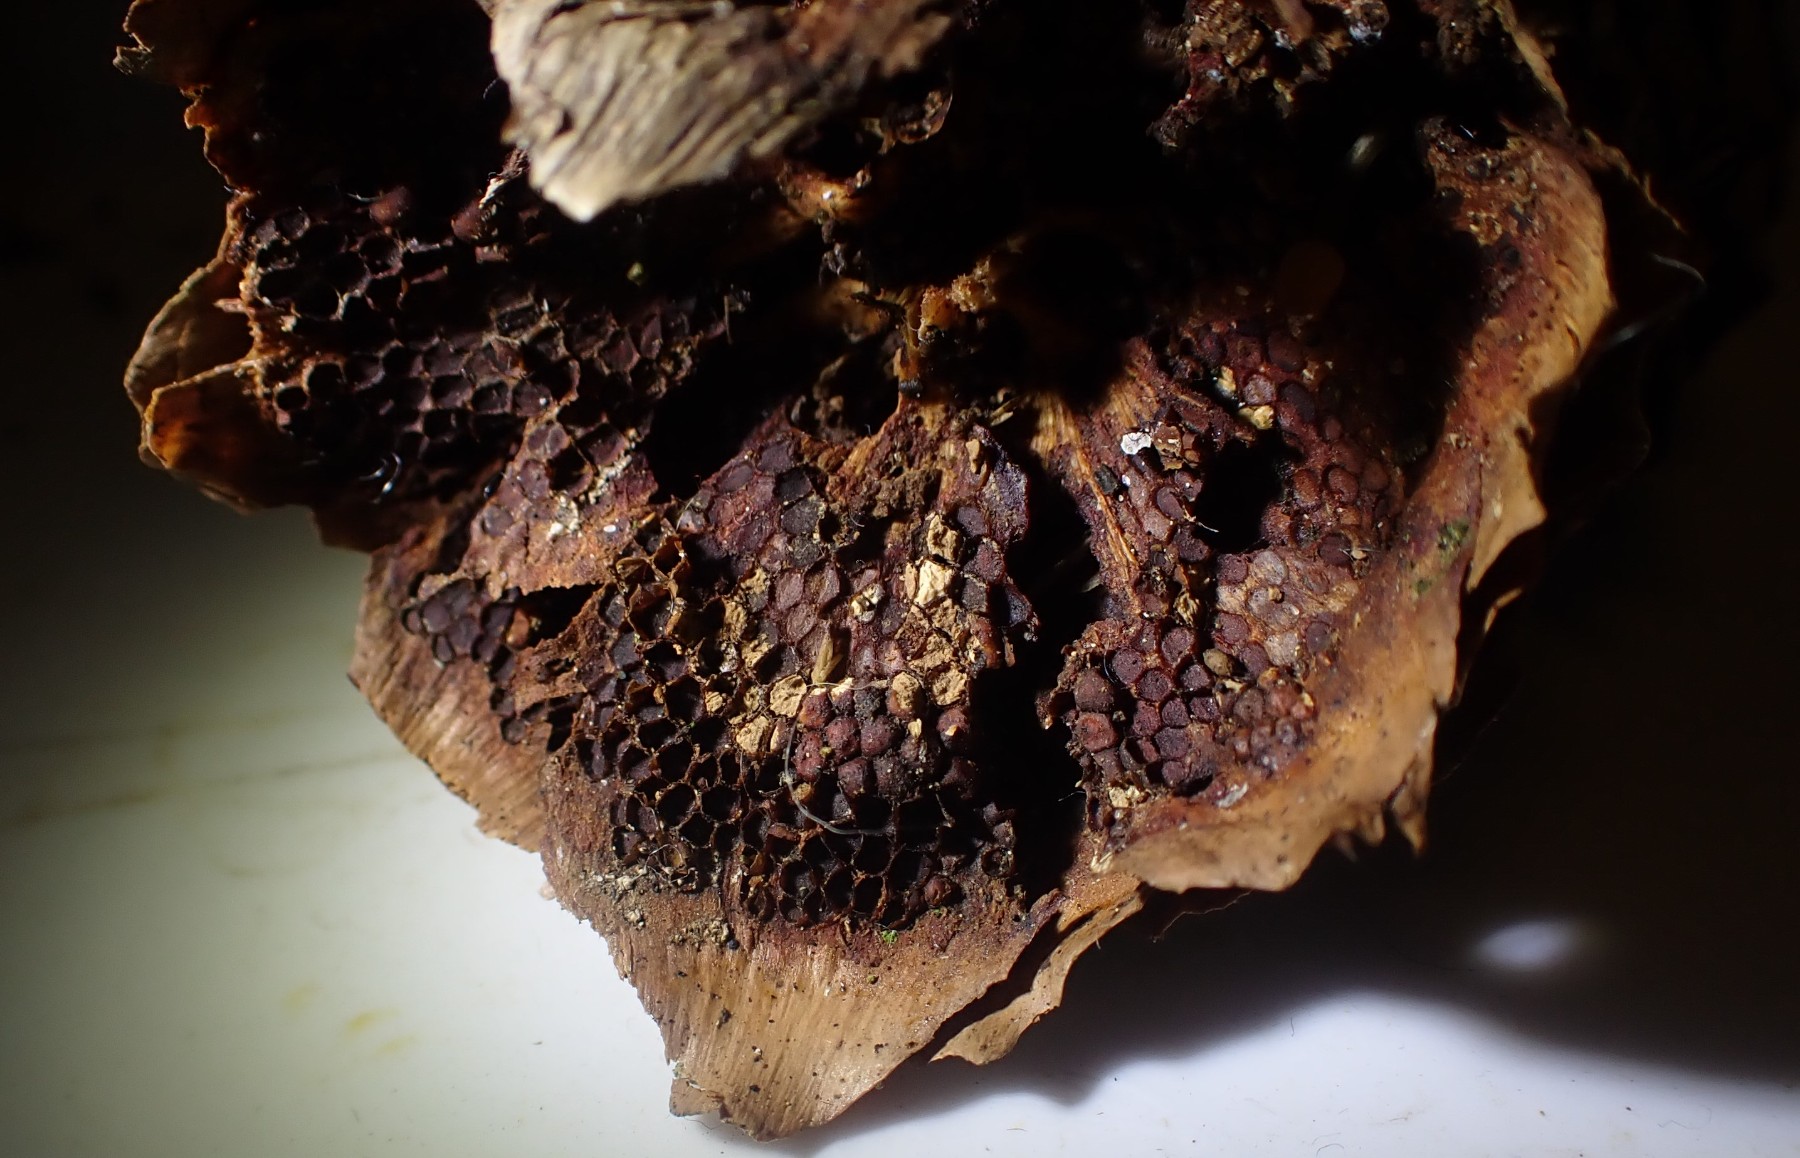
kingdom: Fungi
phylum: Basidiomycota
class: Pucciniomycetes
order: Pucciniales
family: Pucciniastraceae
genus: Thekopsora
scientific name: Thekopsora areolata
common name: grankogle-nålerust
